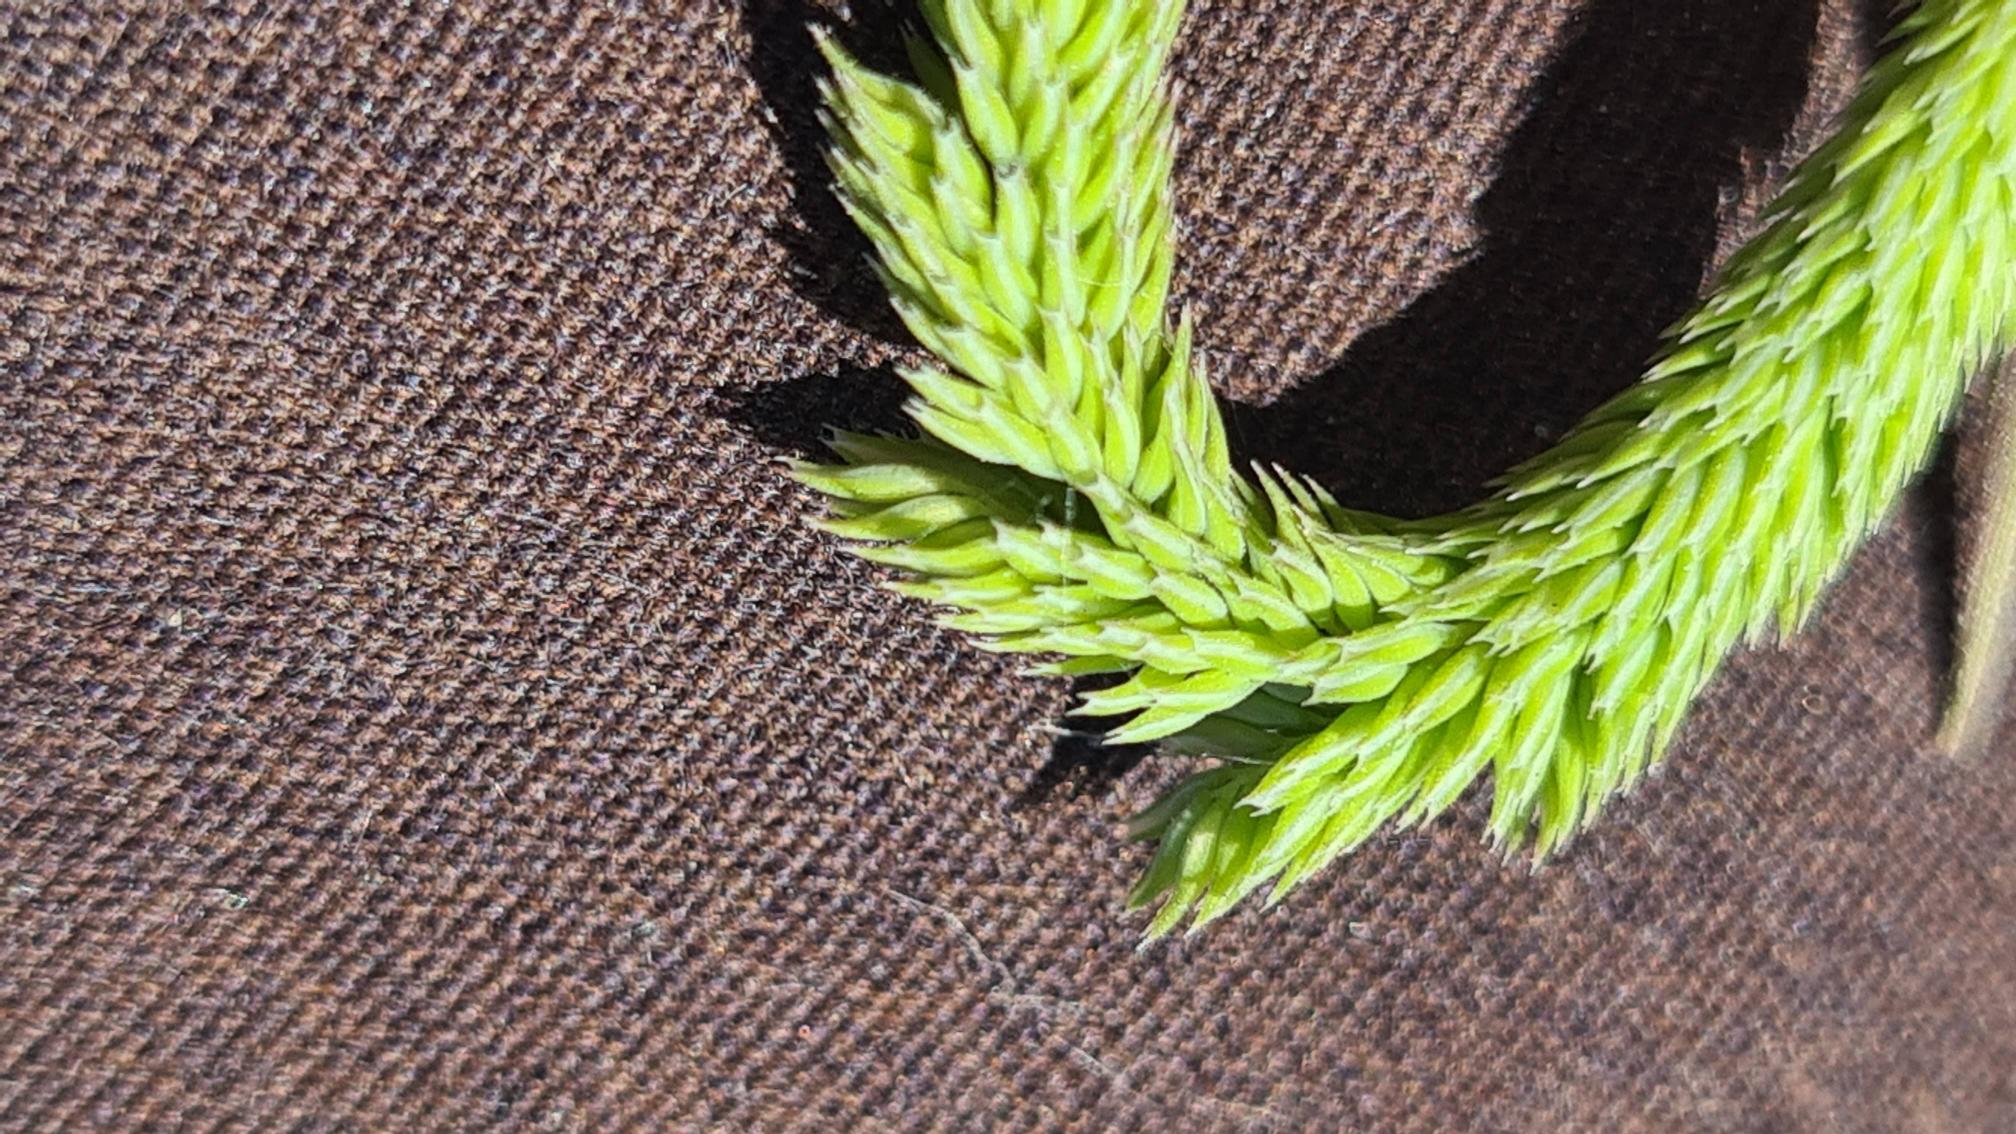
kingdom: Plantae
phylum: Tracheophyta
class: Liliopsida
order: Poales
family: Poaceae
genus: Phleum
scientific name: Phleum phleoides
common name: Glat rottehale
